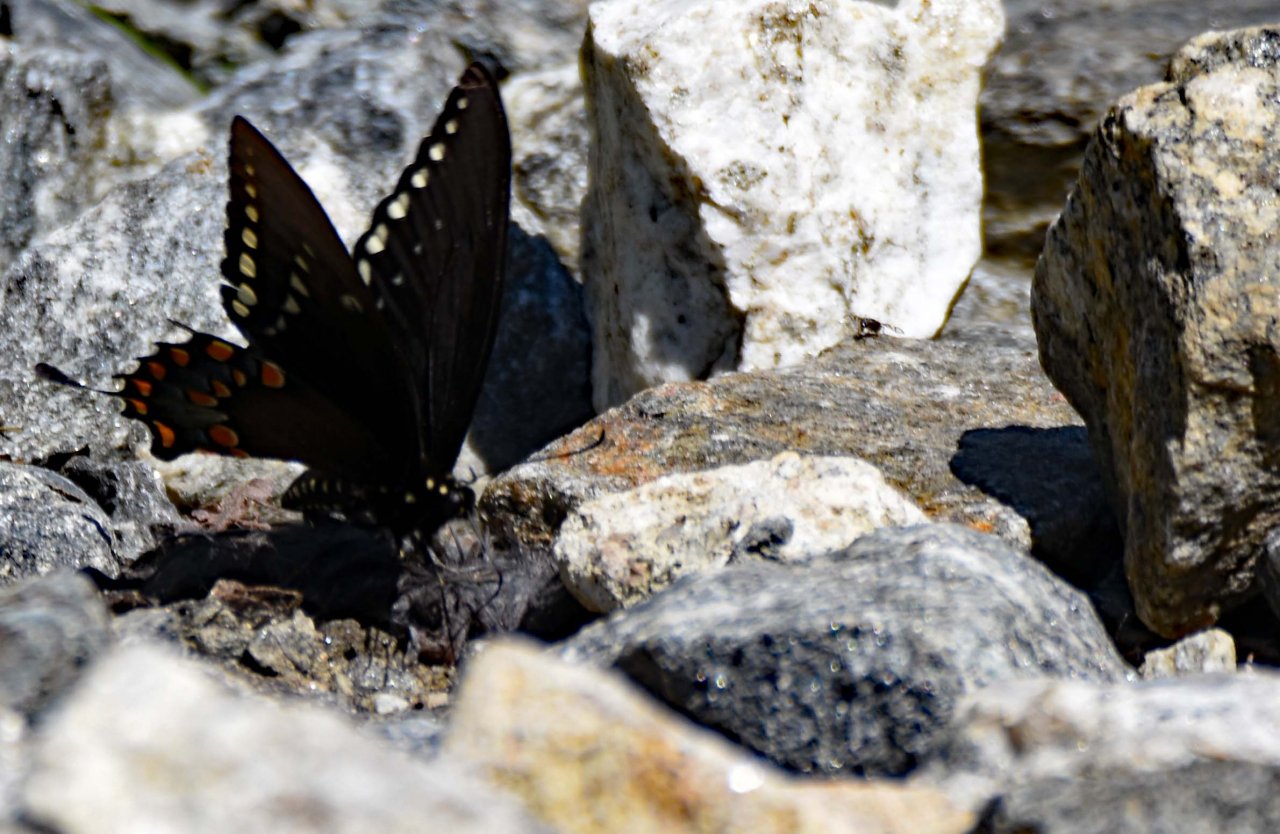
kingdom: Animalia
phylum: Arthropoda
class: Insecta
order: Lepidoptera
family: Papilionidae
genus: Pterourus
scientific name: Pterourus troilus
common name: Spicebush Swallowtail
